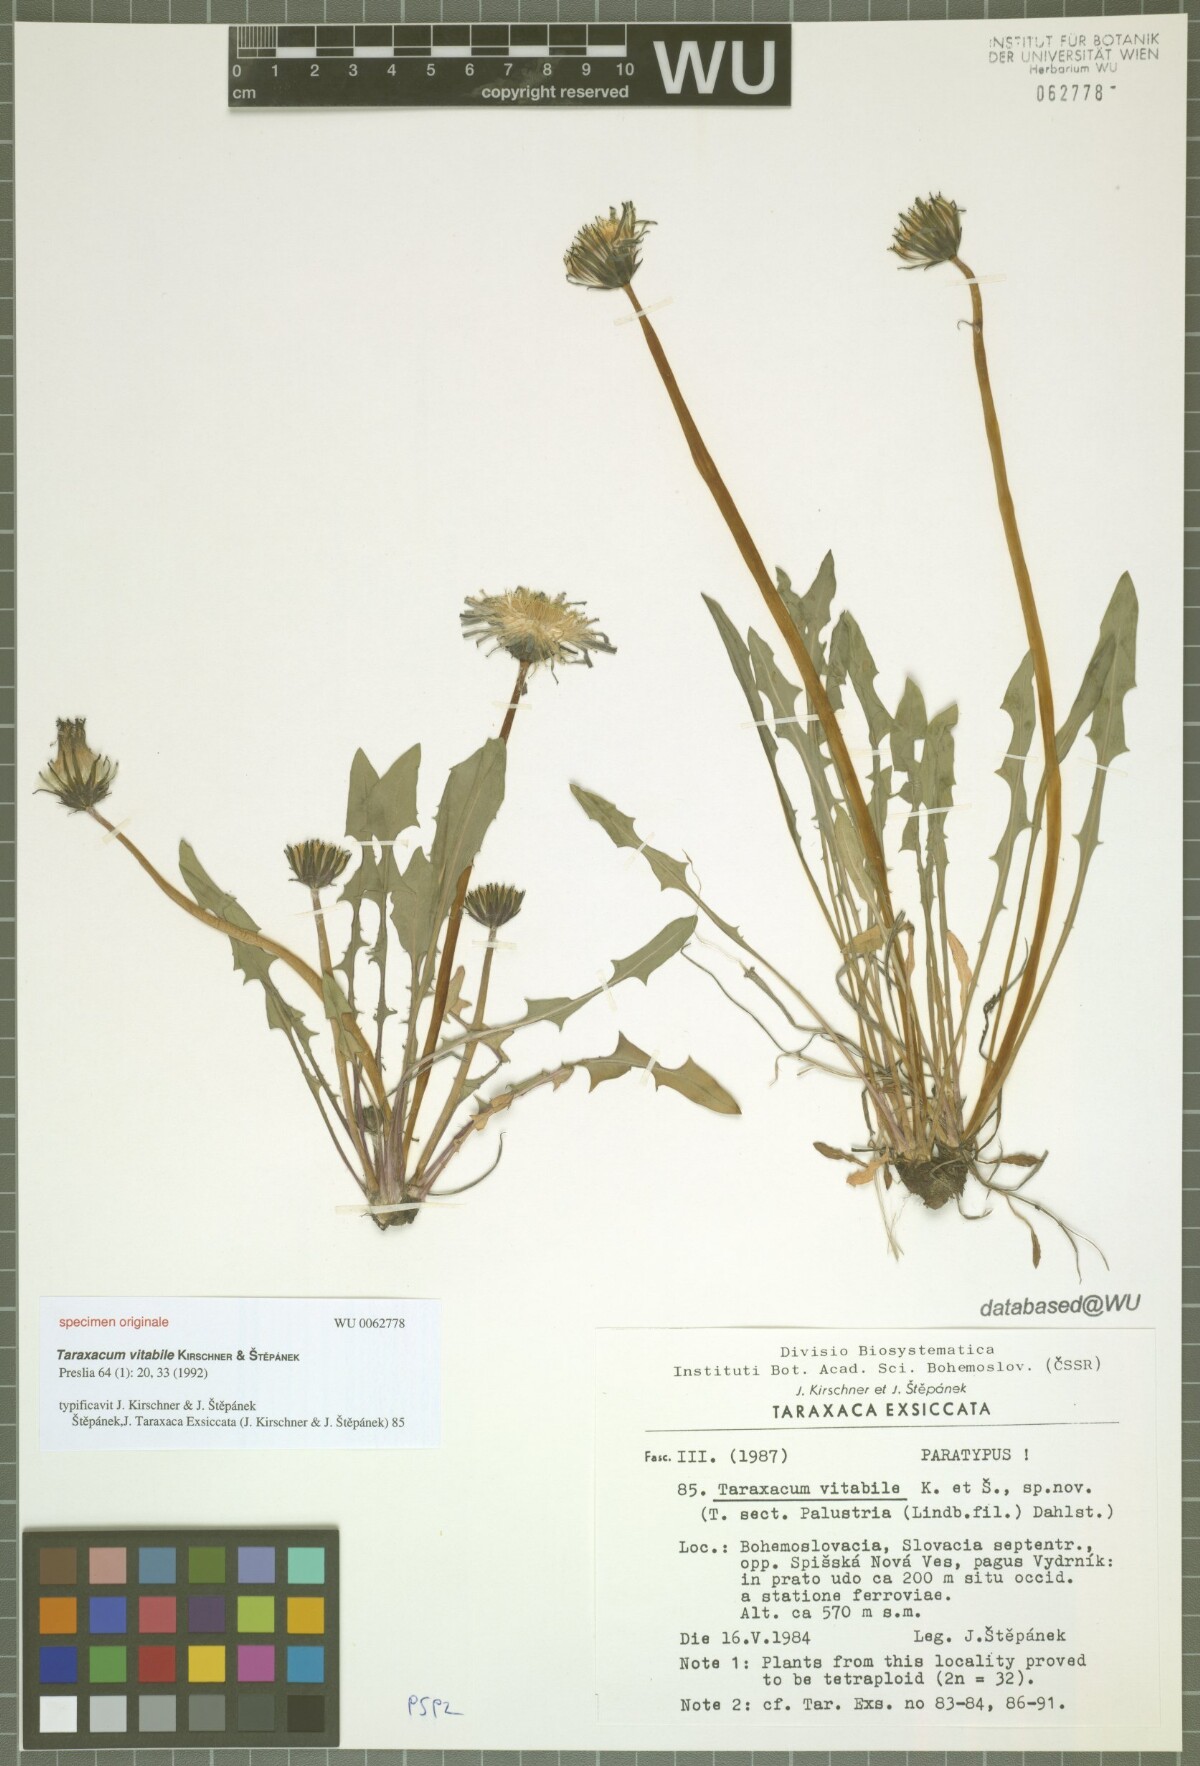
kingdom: Plantae
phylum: Tracheophyta
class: Magnoliopsida
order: Asterales
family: Asteraceae
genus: Taraxacum
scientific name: Taraxacum vindobonense
